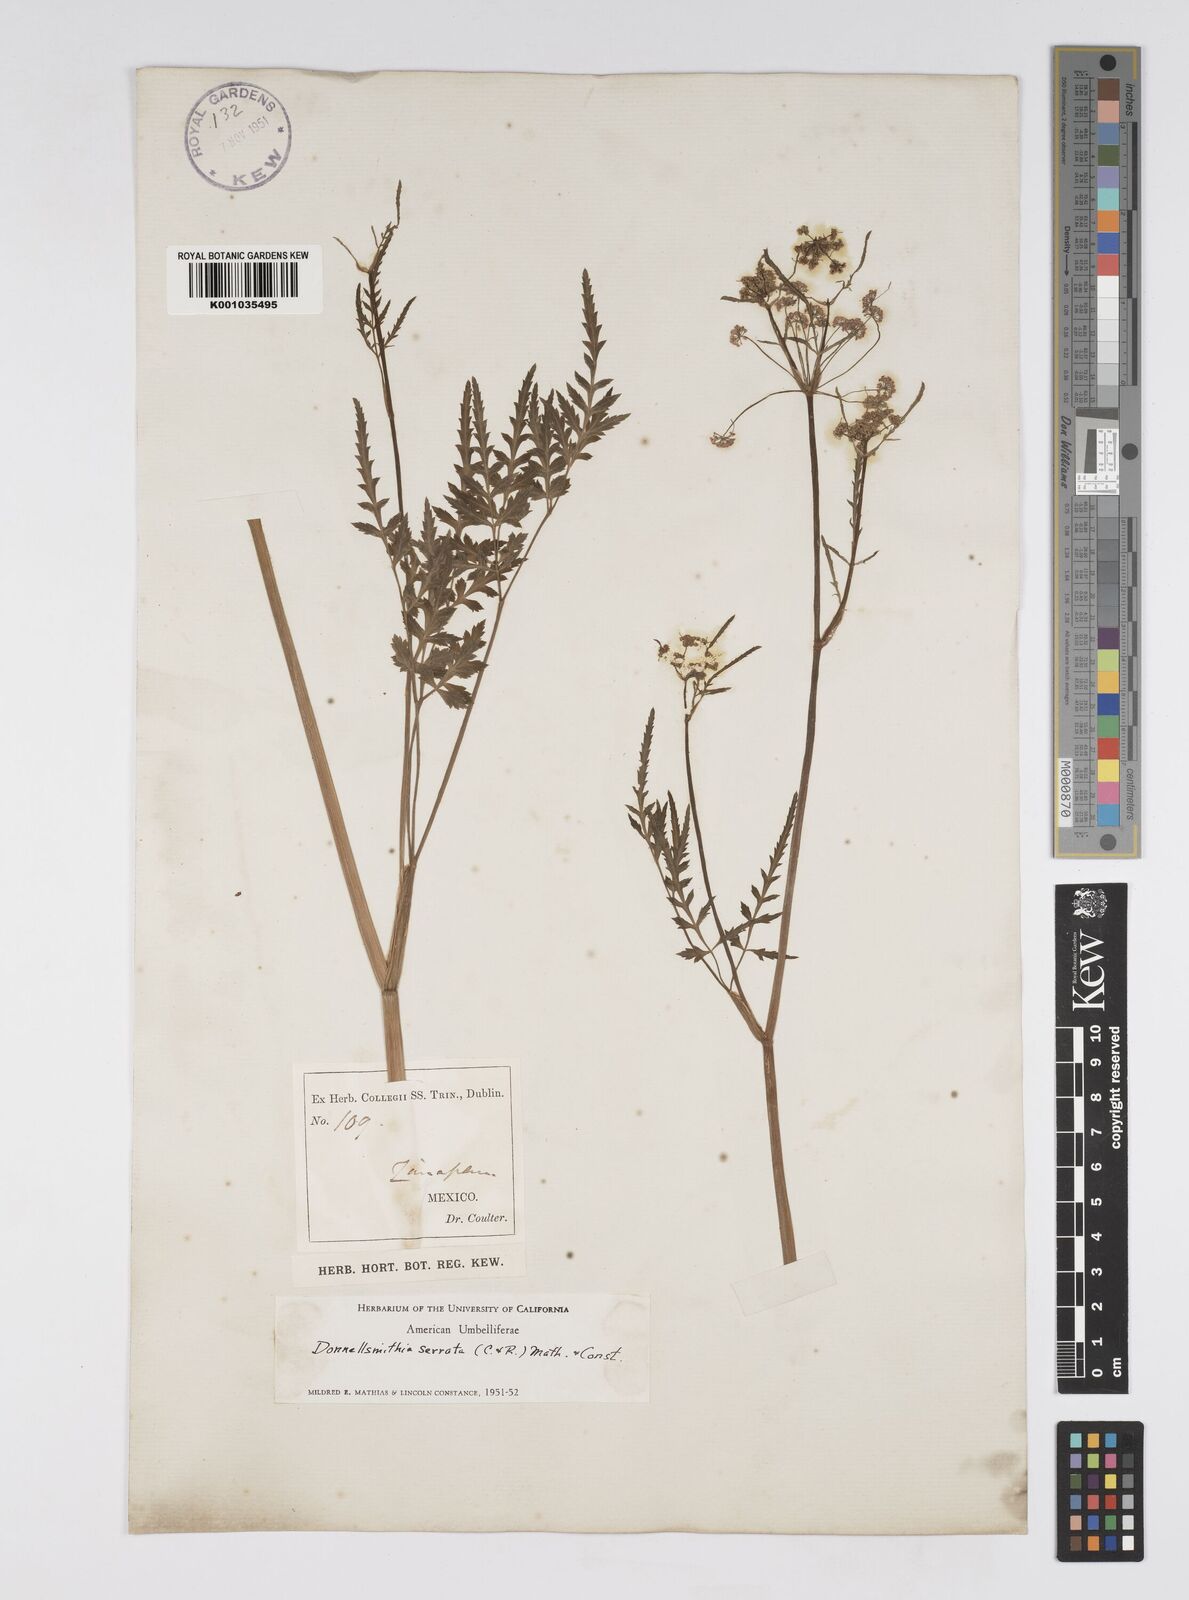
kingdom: Plantae
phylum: Tracheophyta
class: Magnoliopsida
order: Apiales
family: Apiaceae
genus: Donnellsmithia
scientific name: Donnellsmithia serrata
